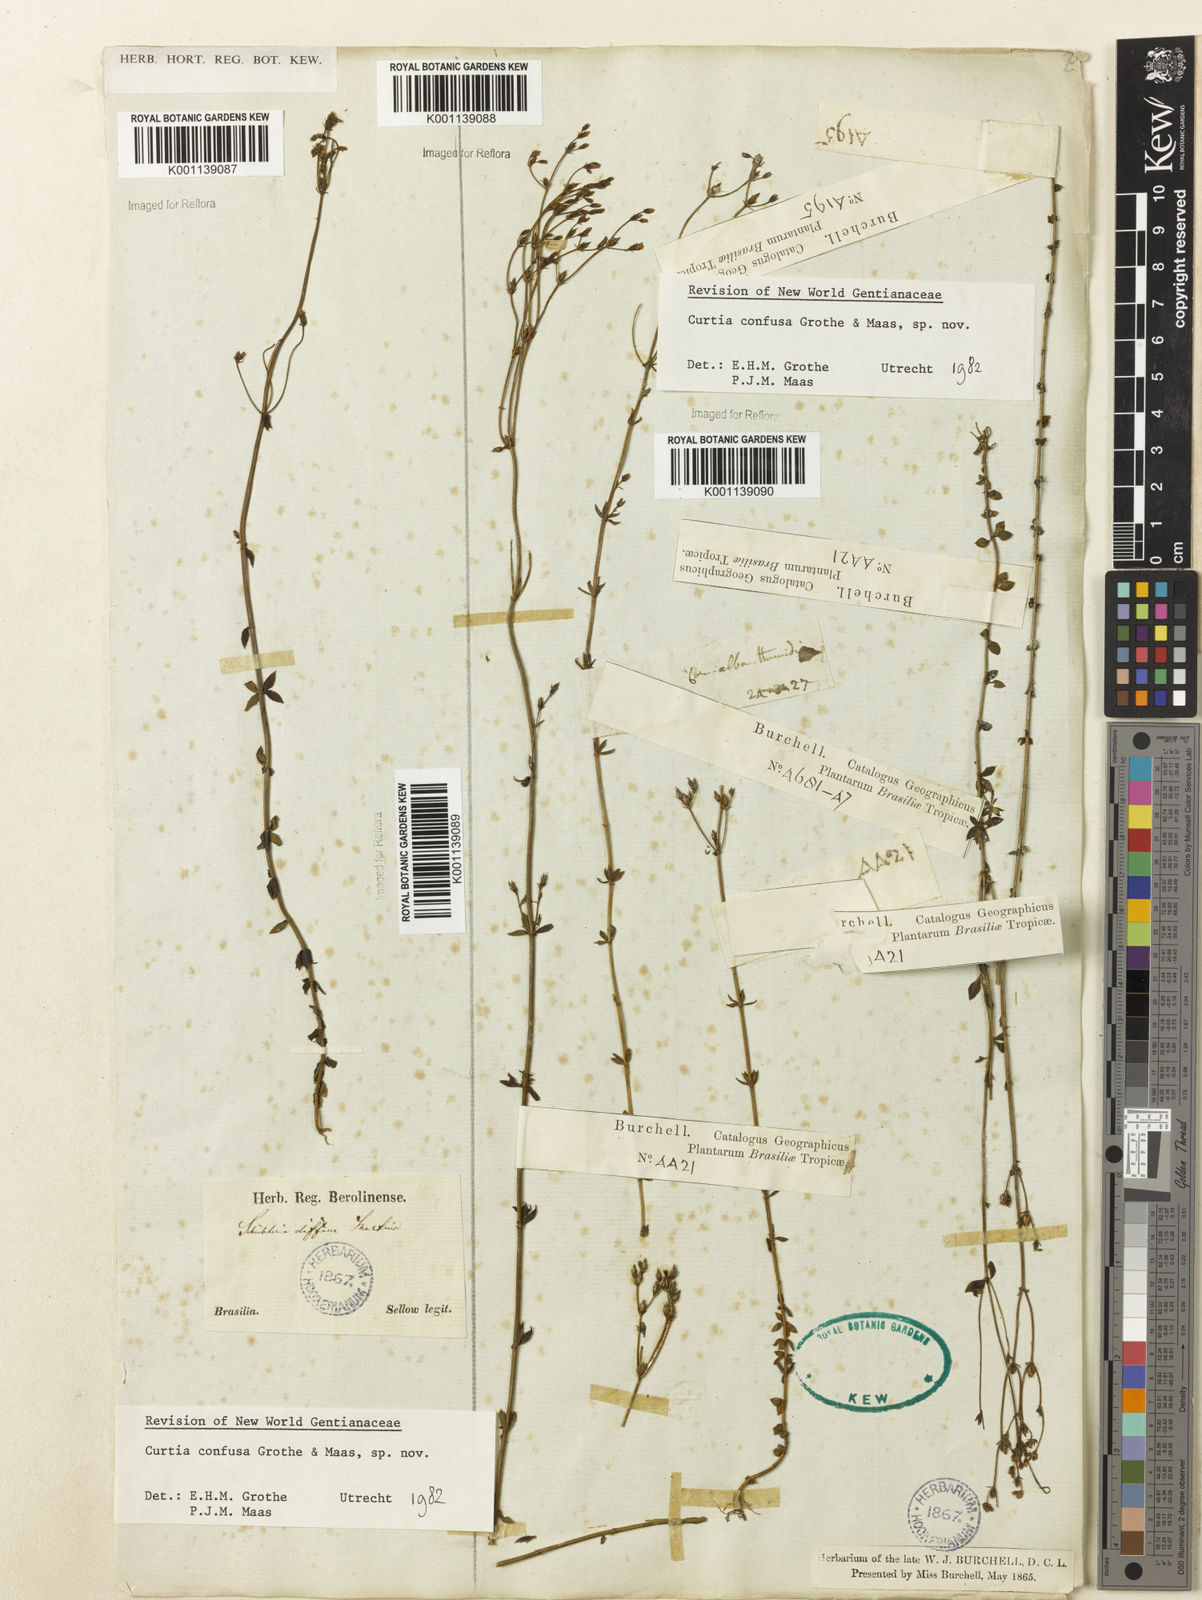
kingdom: Plantae
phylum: Tracheophyta
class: Magnoliopsida
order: Gentianales
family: Gentianaceae
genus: Curtia
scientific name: Curtia conferta
